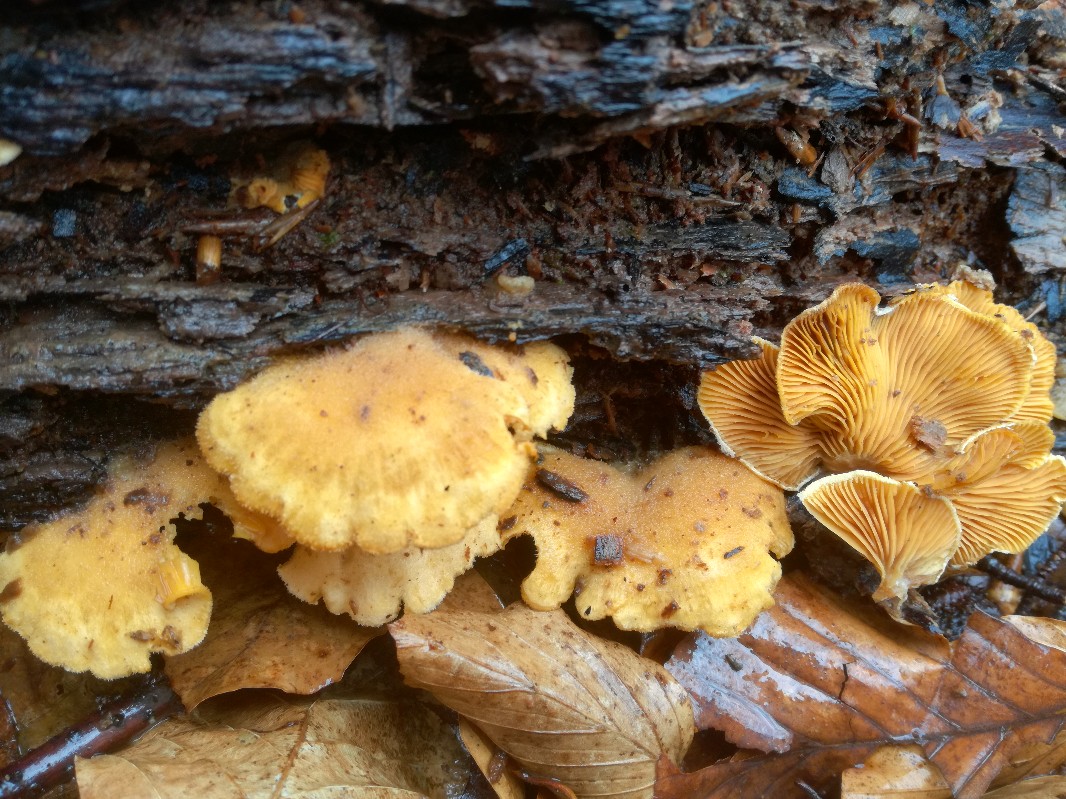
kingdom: Fungi
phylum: Basidiomycota
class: Agaricomycetes
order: Agaricales
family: Phyllotopsidaceae
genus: Phyllotopsis
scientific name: Phyllotopsis nidulans
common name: okkerblad
